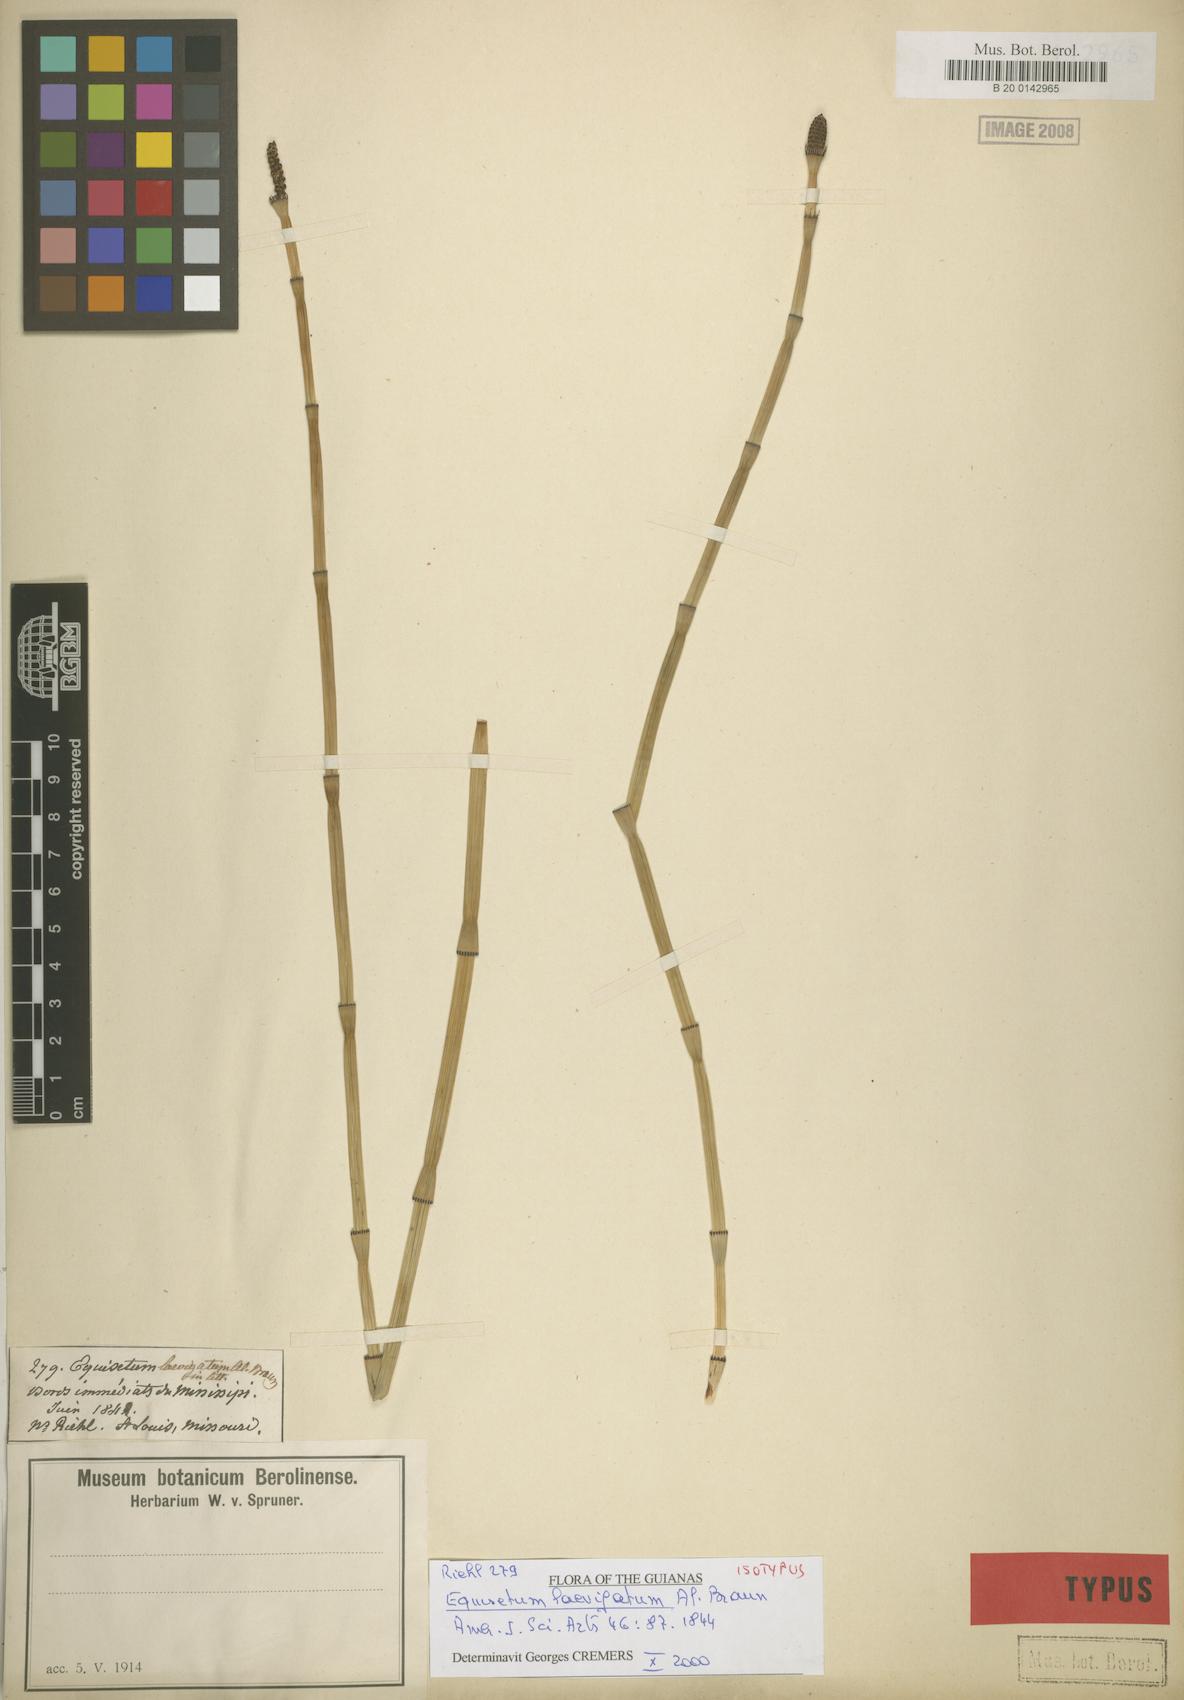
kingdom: Plantae
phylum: Tracheophyta
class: Polypodiopsida
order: Equisetales
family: Equisetaceae
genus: Equisetum
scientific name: Equisetum laevigatum
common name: Smooth scouring-rush
